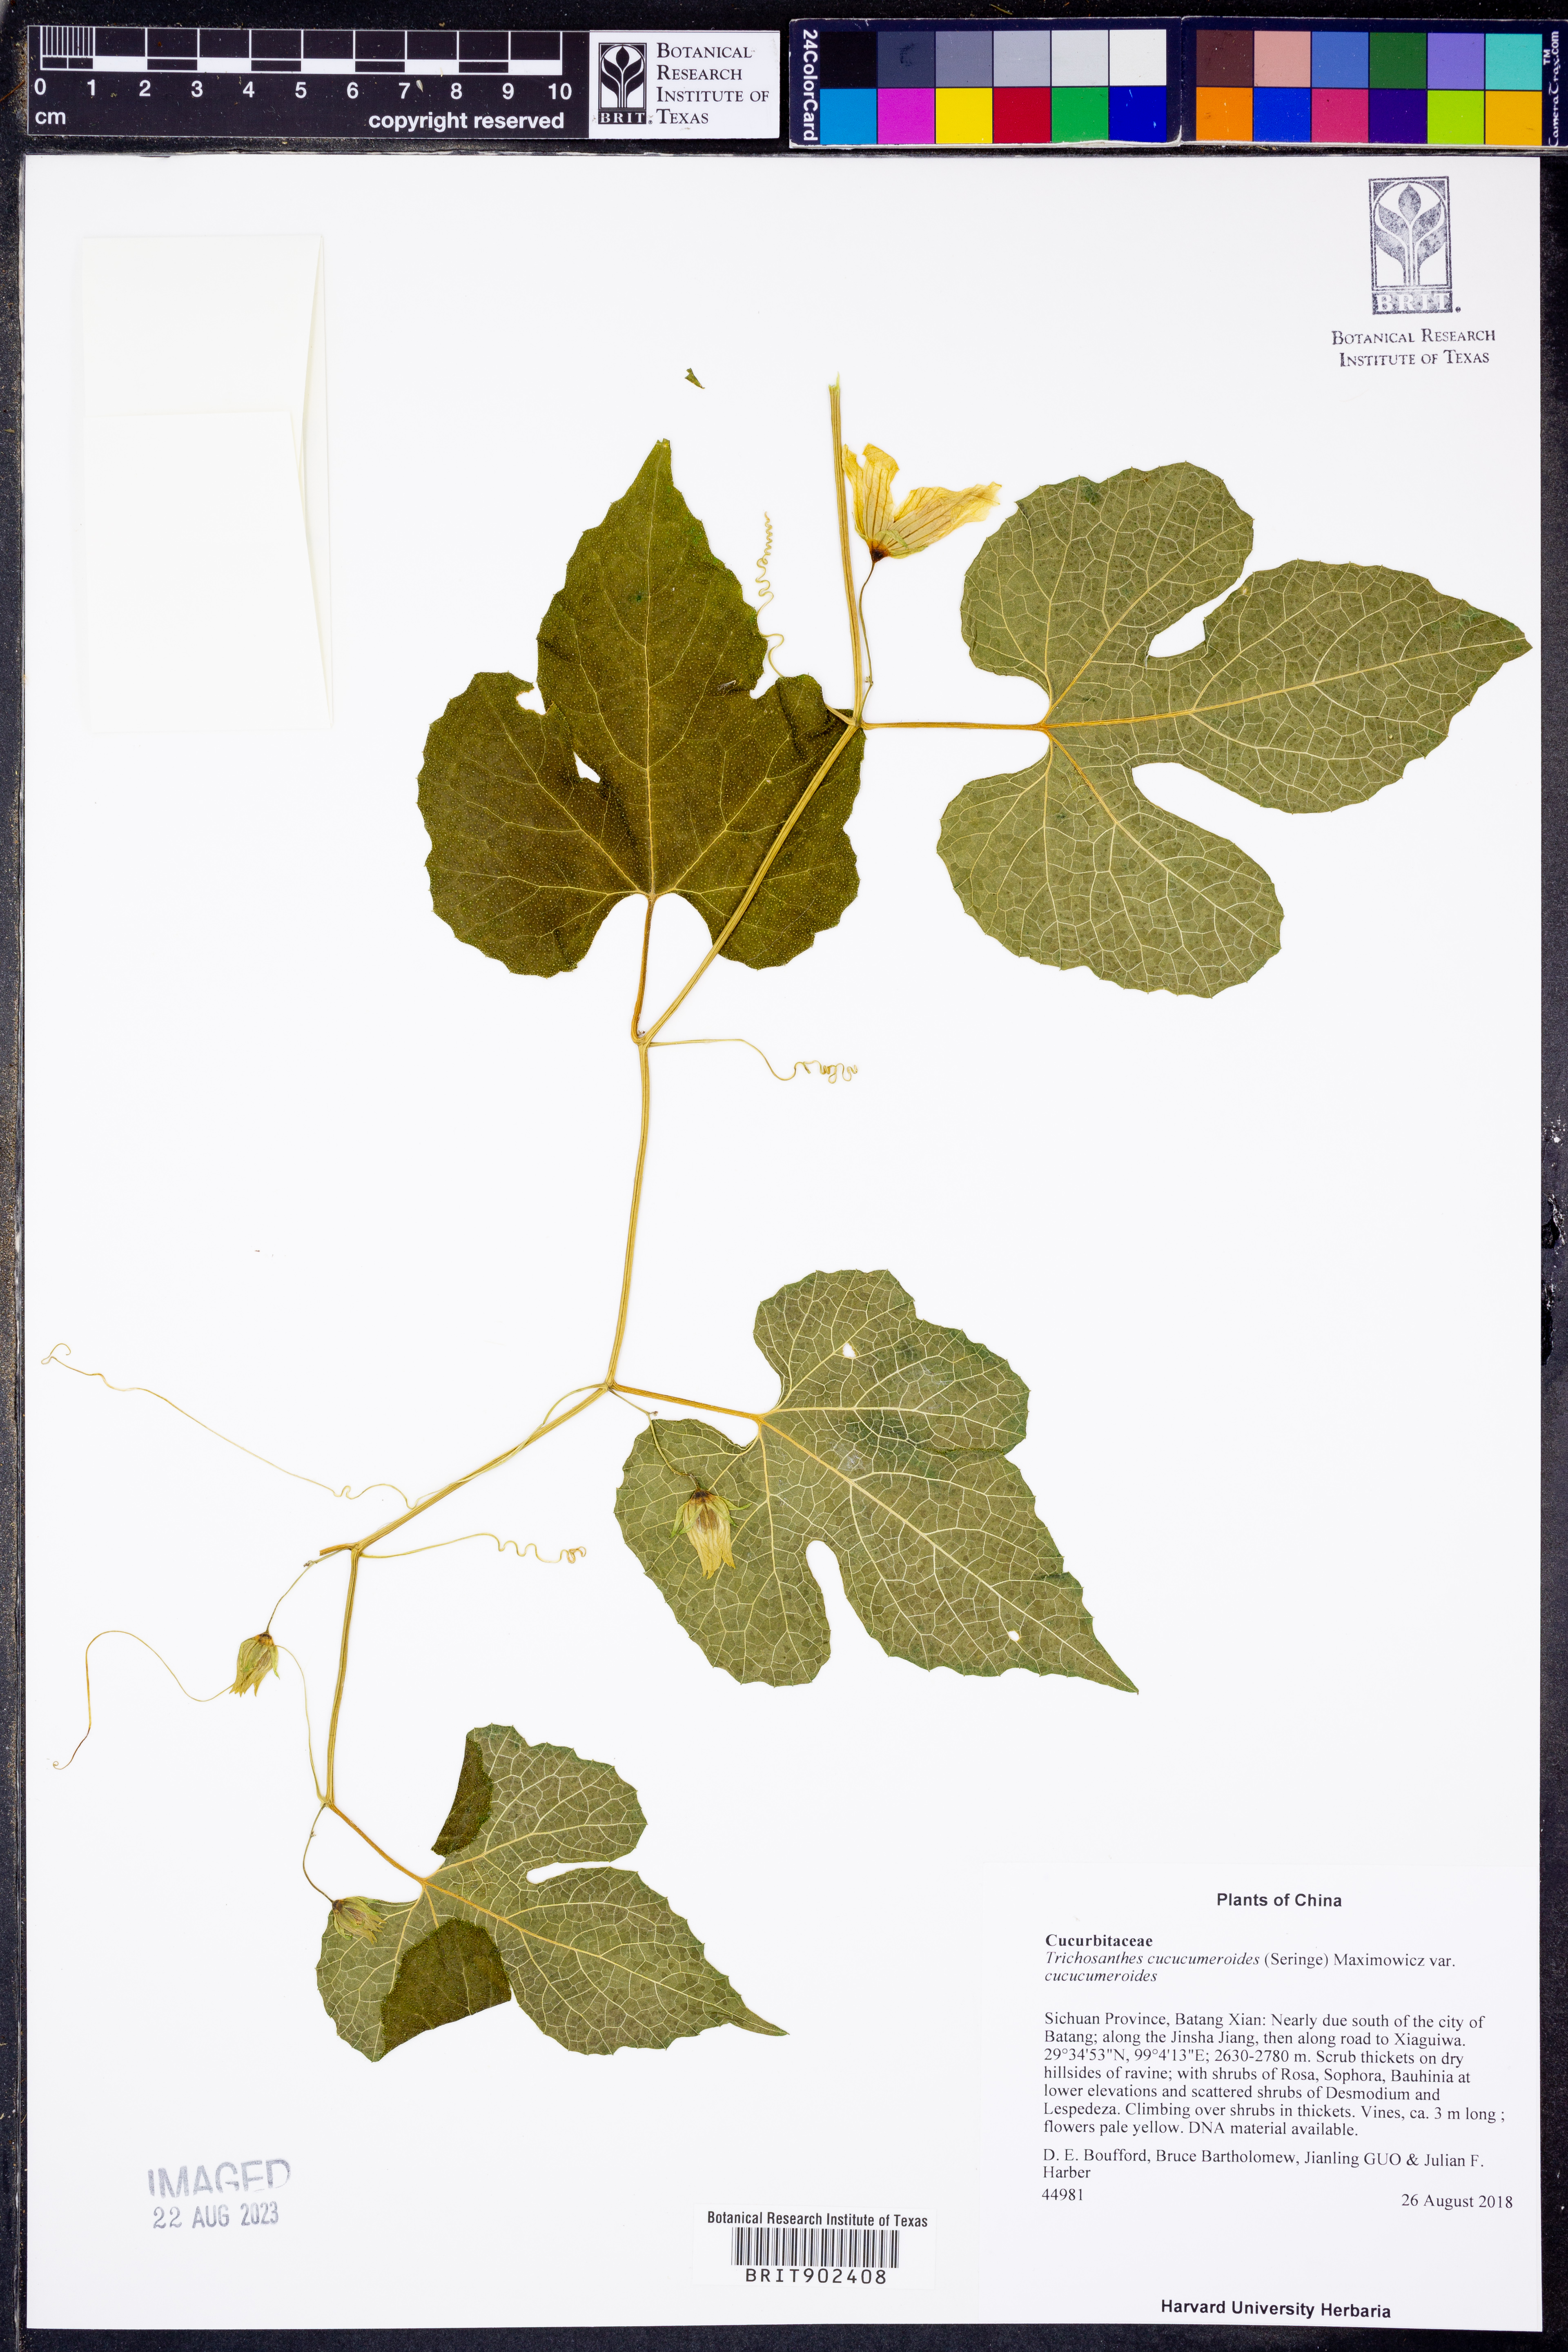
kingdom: Plantae
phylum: Tracheophyta
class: Magnoliopsida
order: Cucurbitales
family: Cucurbitaceae
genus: Trichosanthes
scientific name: Trichosanthes cucumeroides
